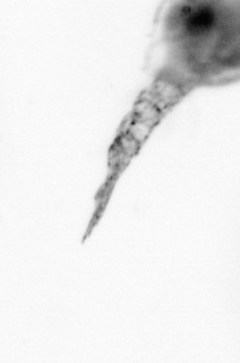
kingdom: Animalia
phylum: Arthropoda
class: Copepoda
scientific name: Copepoda
